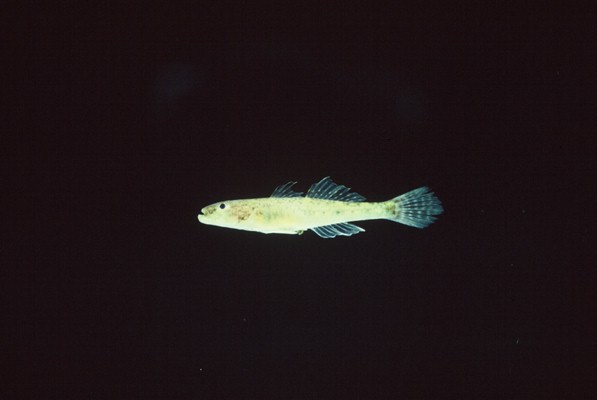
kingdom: Animalia
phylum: Chordata
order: Perciformes
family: Gobiidae
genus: Glossogobius
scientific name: Glossogobius callidus
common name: River goby
